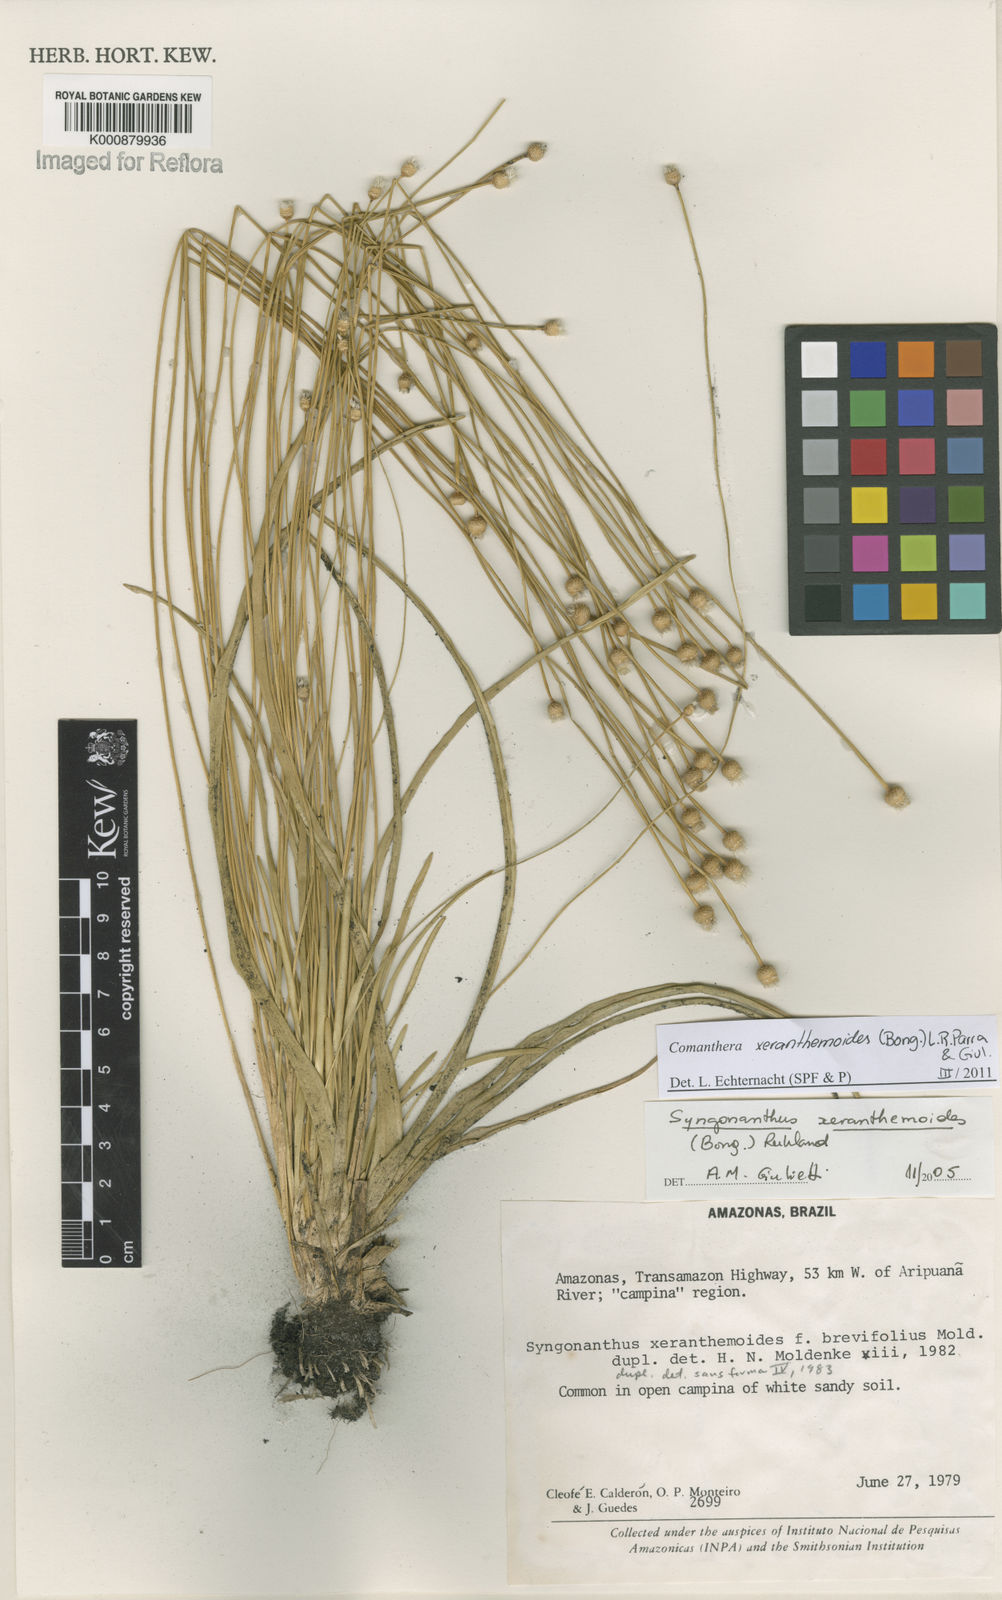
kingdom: Plantae
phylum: Tracheophyta
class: Liliopsida
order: Poales
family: Eriocaulaceae
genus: Comanthera
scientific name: Comanthera
